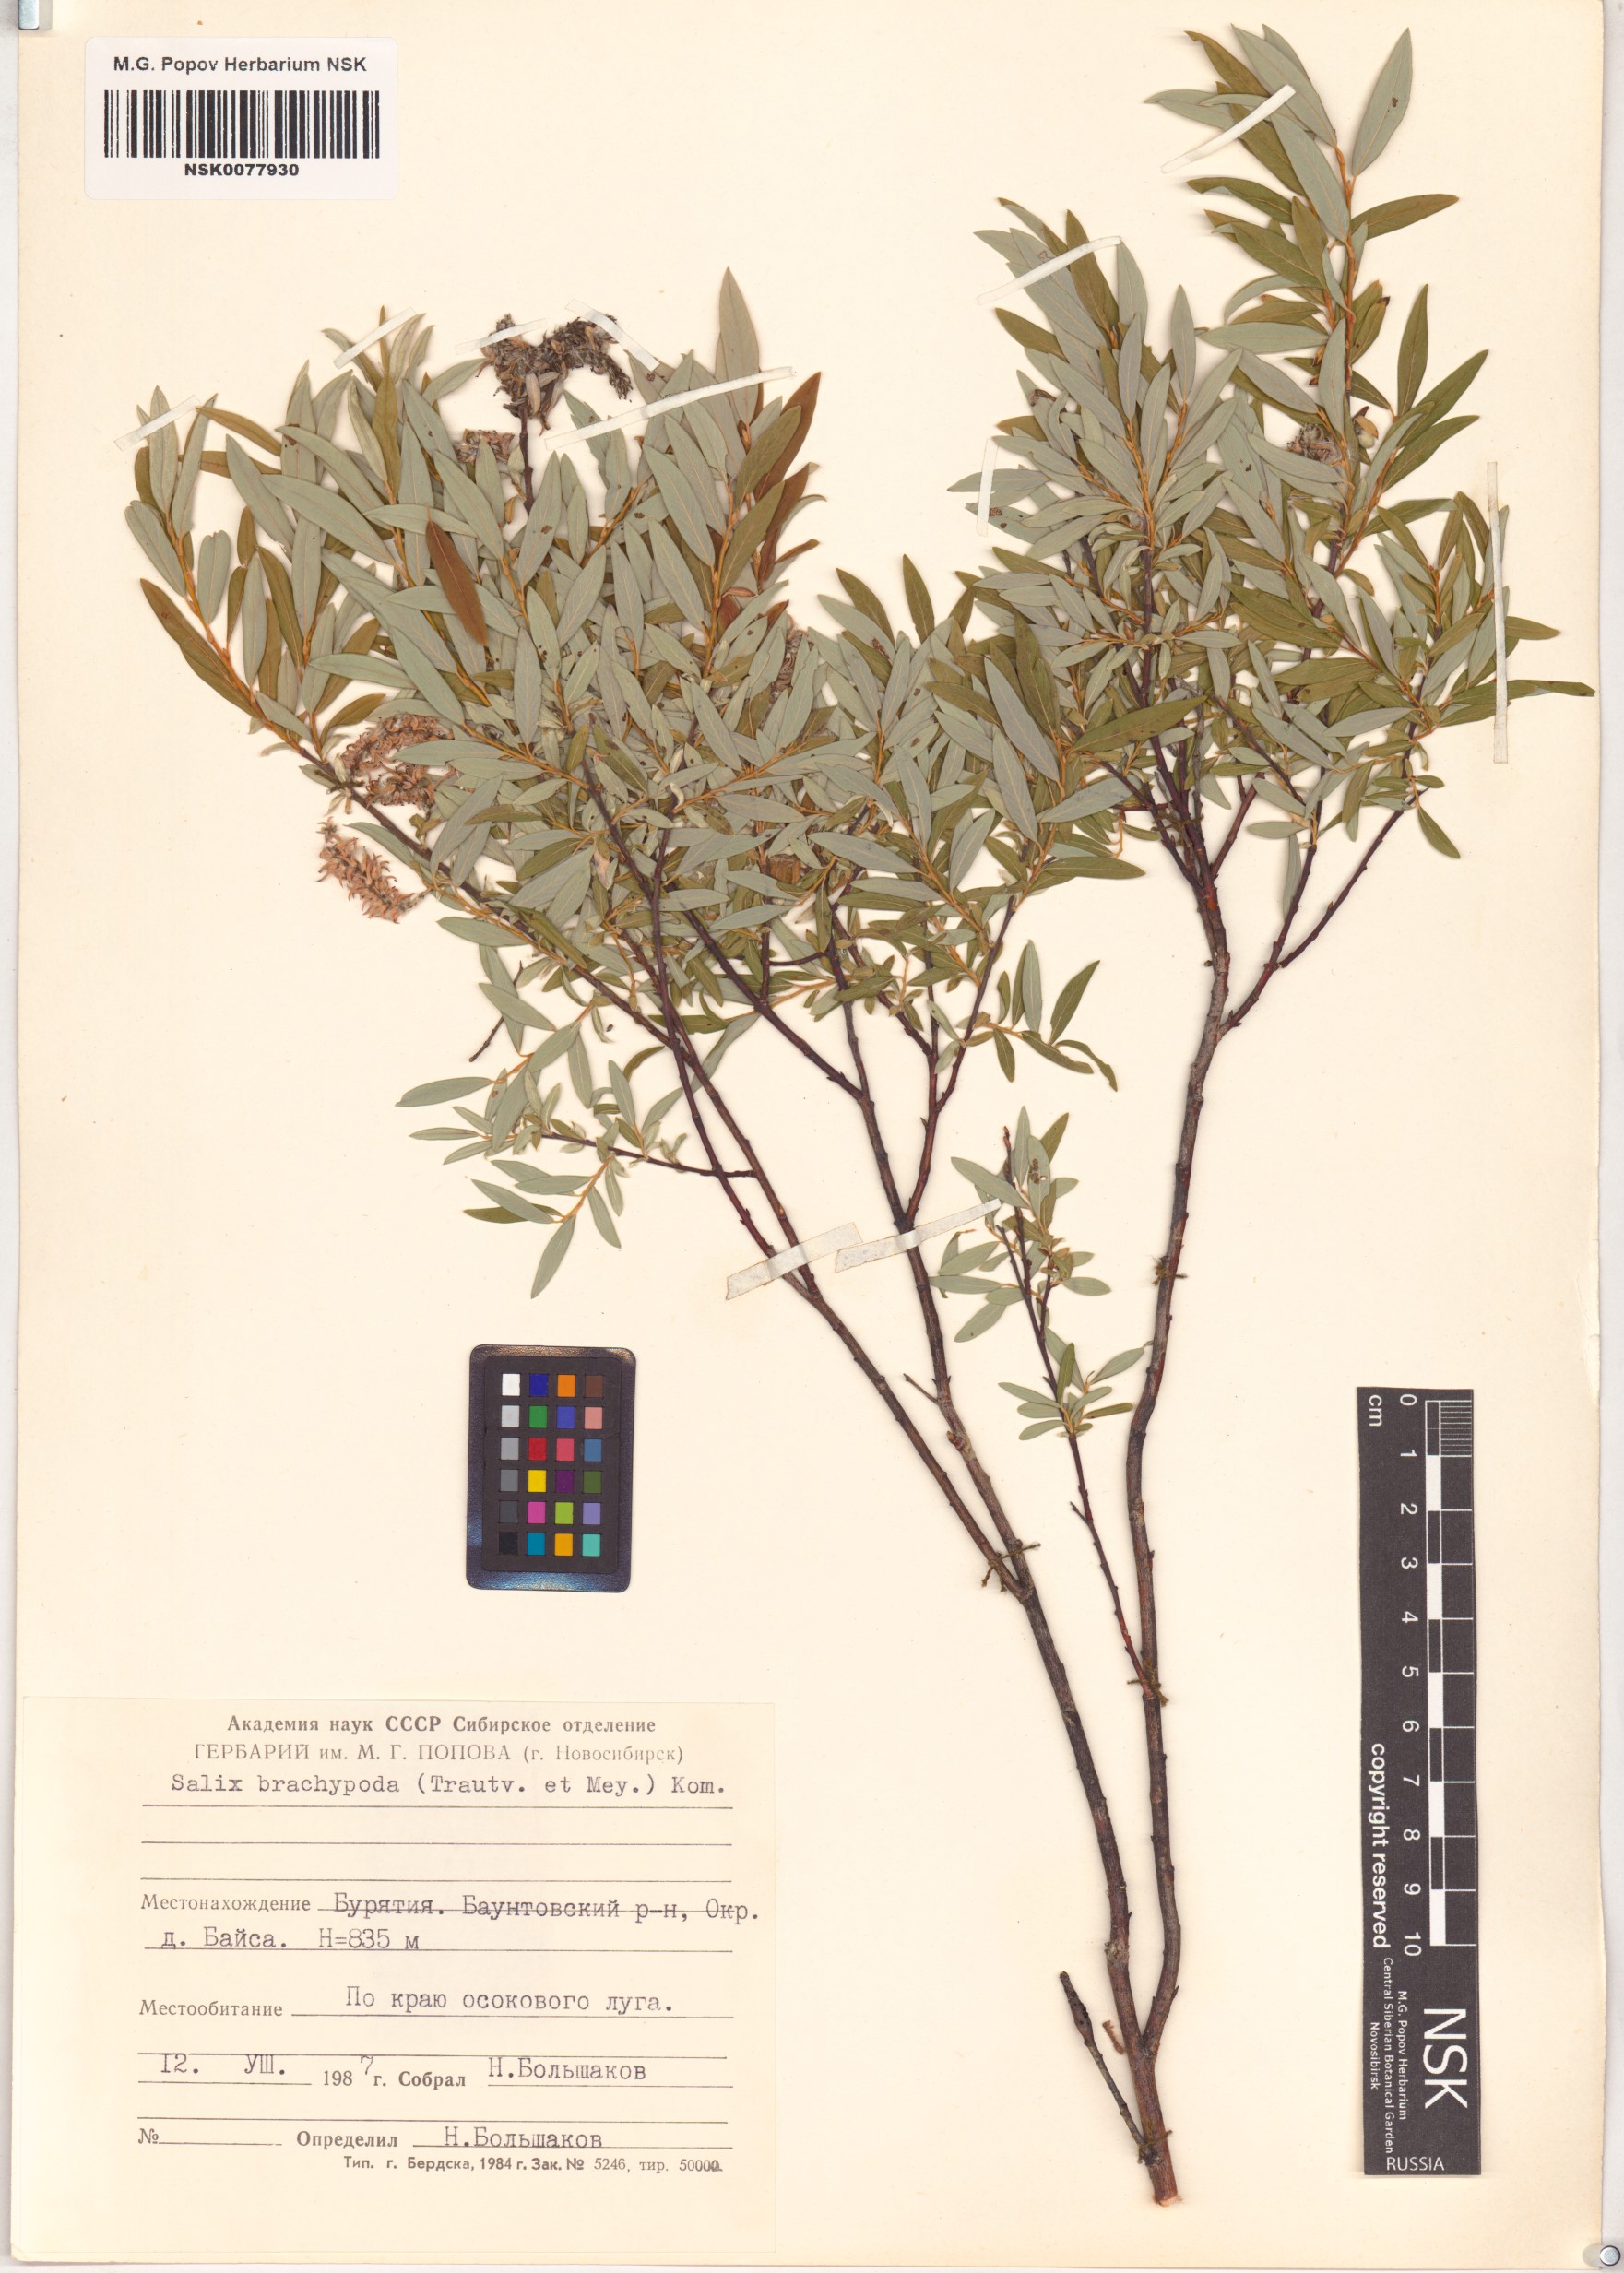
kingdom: Plantae
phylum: Tracheophyta
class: Magnoliopsida
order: Malpighiales
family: Salicaceae
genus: Salix
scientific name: Salix brachypoda
